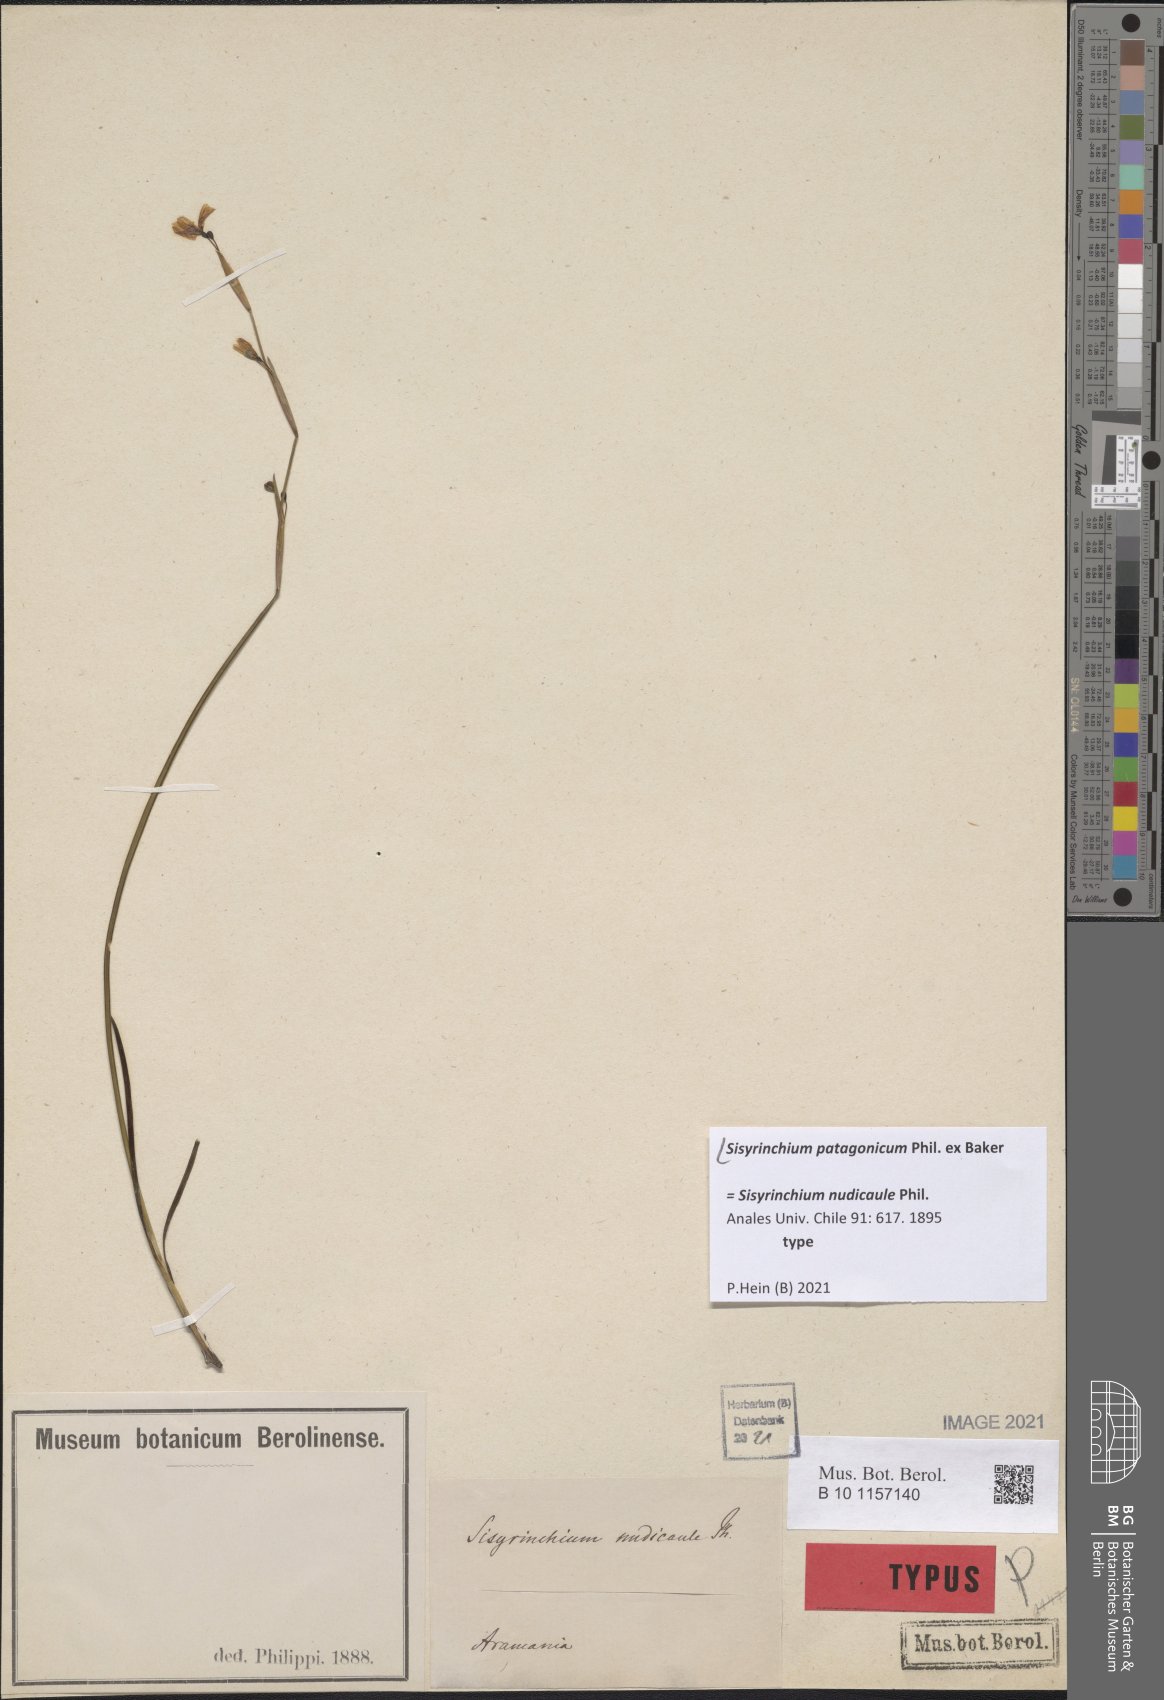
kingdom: Plantae
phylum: Tracheophyta
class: Liliopsida
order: Asparagales
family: Iridaceae
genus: Sisyrinchium
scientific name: Sisyrinchium patagonicum
